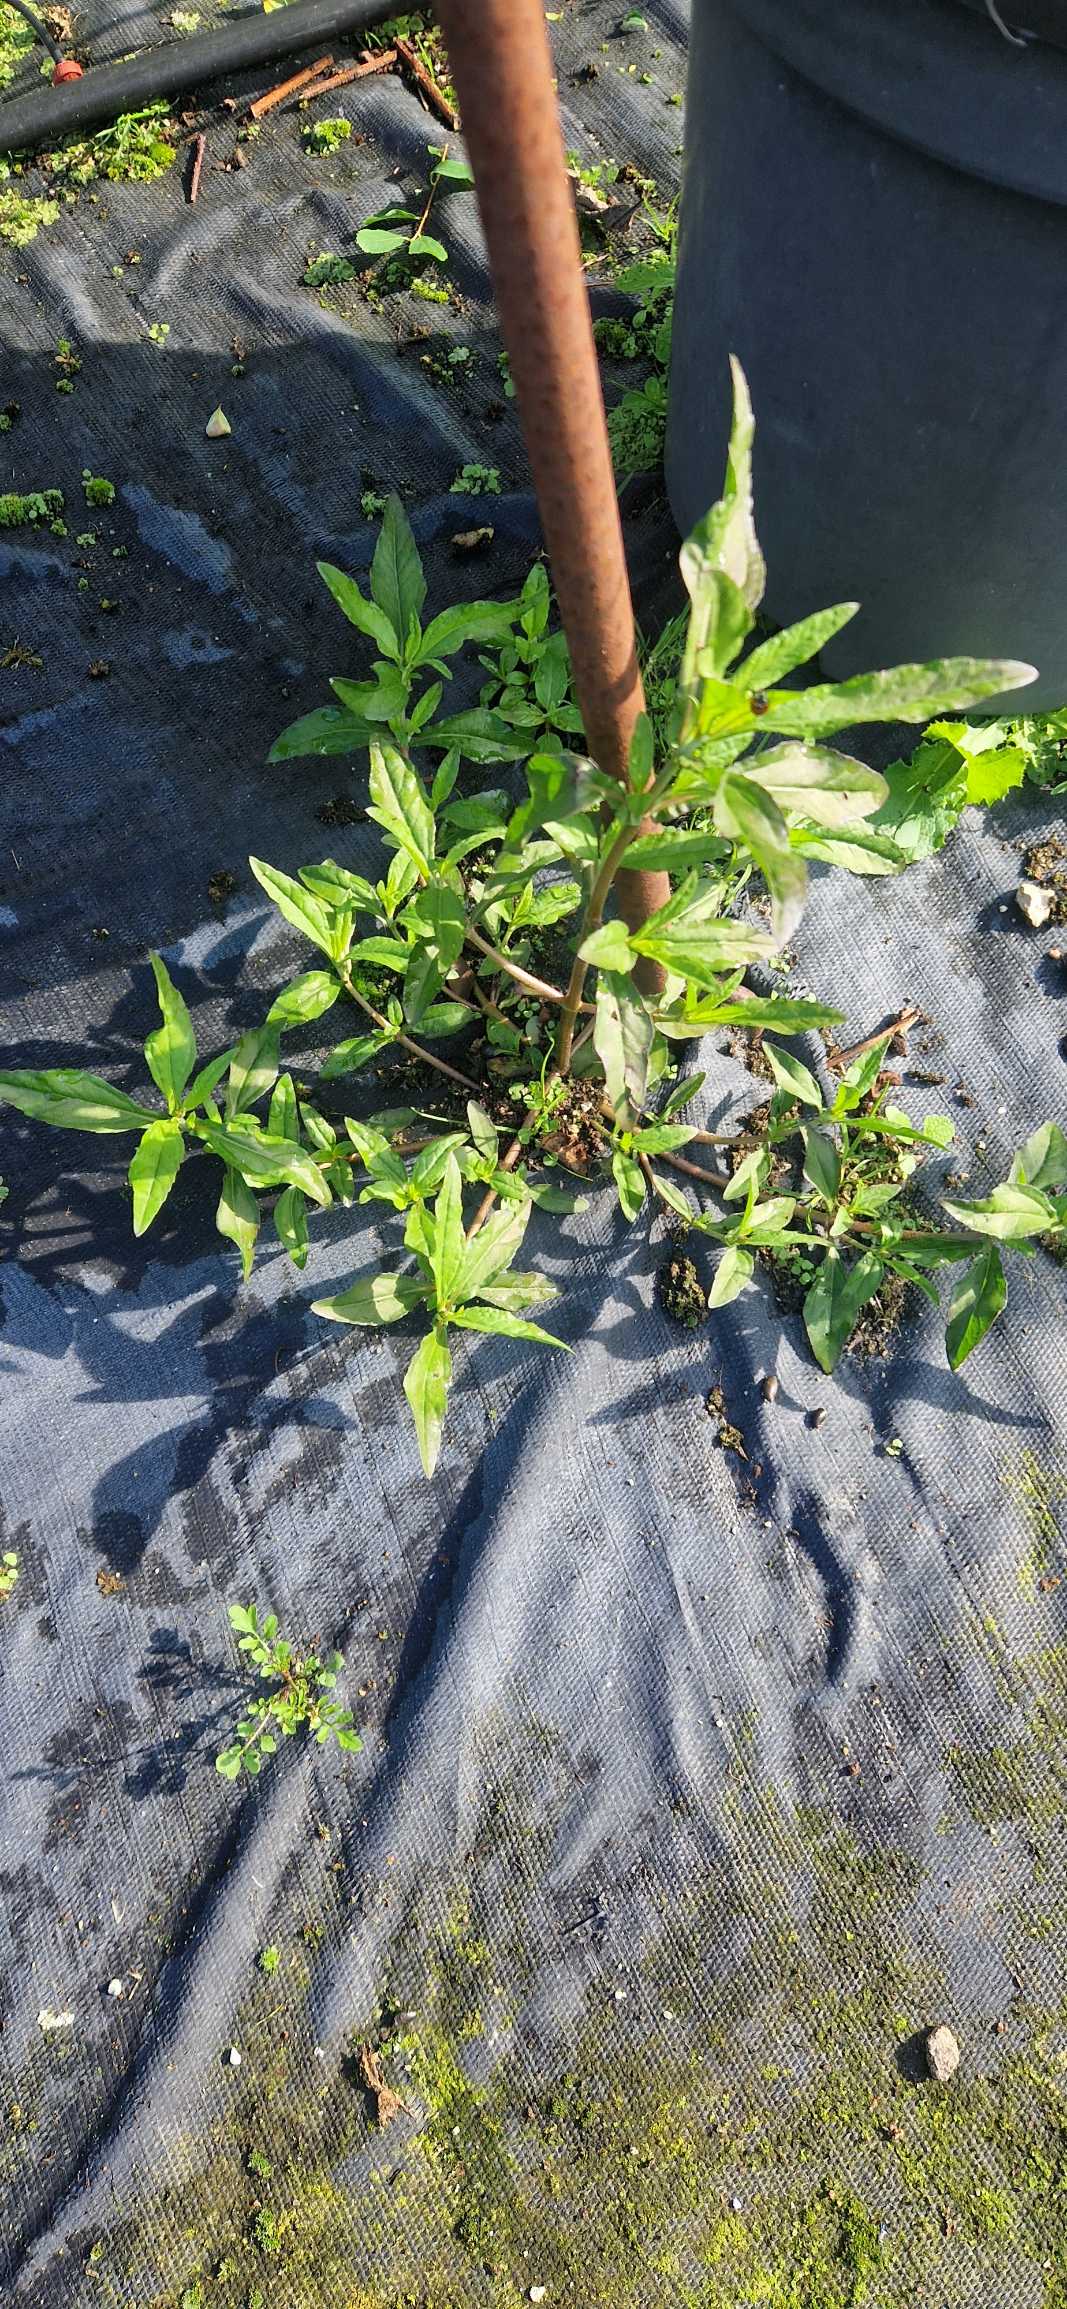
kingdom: Plantae
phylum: Tracheophyta
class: Magnoliopsida
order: Asterales
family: Asteraceae
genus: Eclipta
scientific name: Eclipta prostrata
